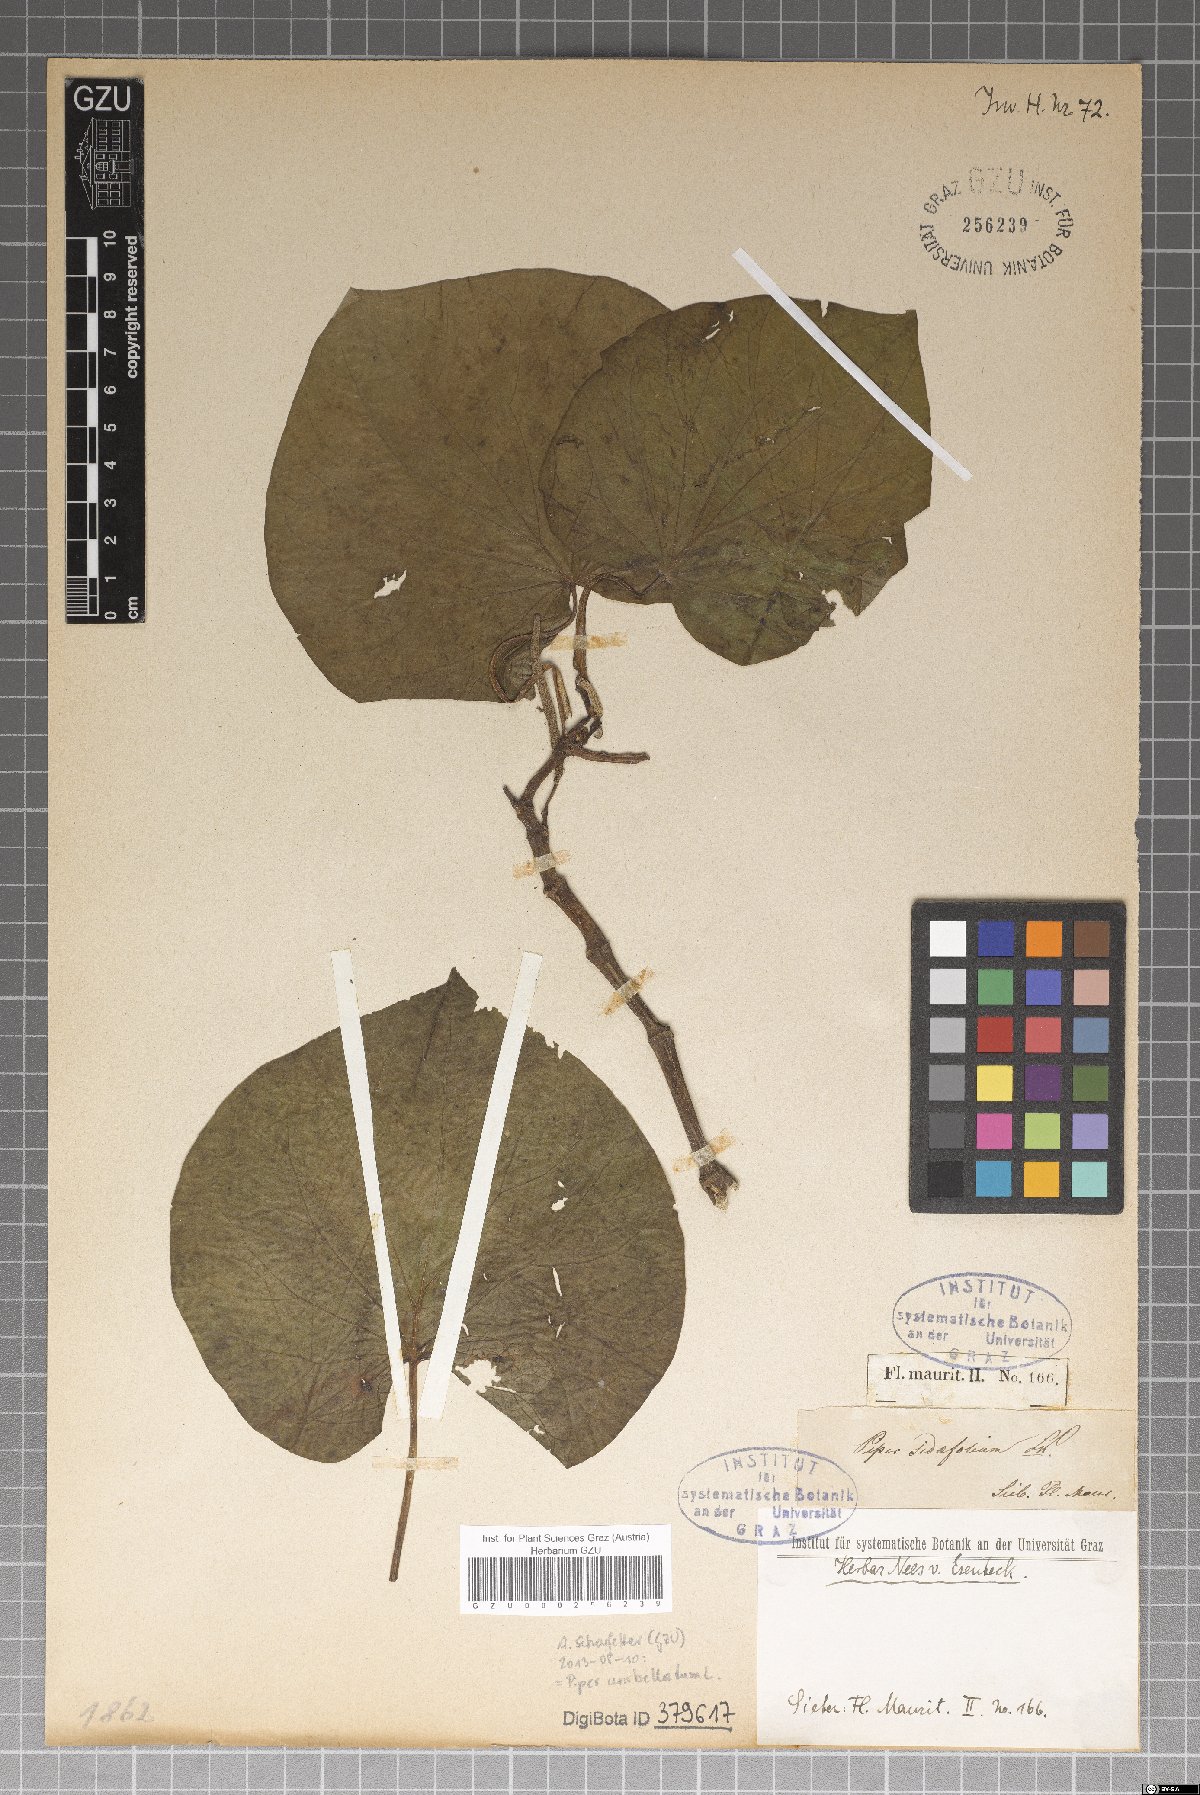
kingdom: Plantae
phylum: Tracheophyta
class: Magnoliopsida
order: Piperales
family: Piperaceae
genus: Piper
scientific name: Piper umbellatum
